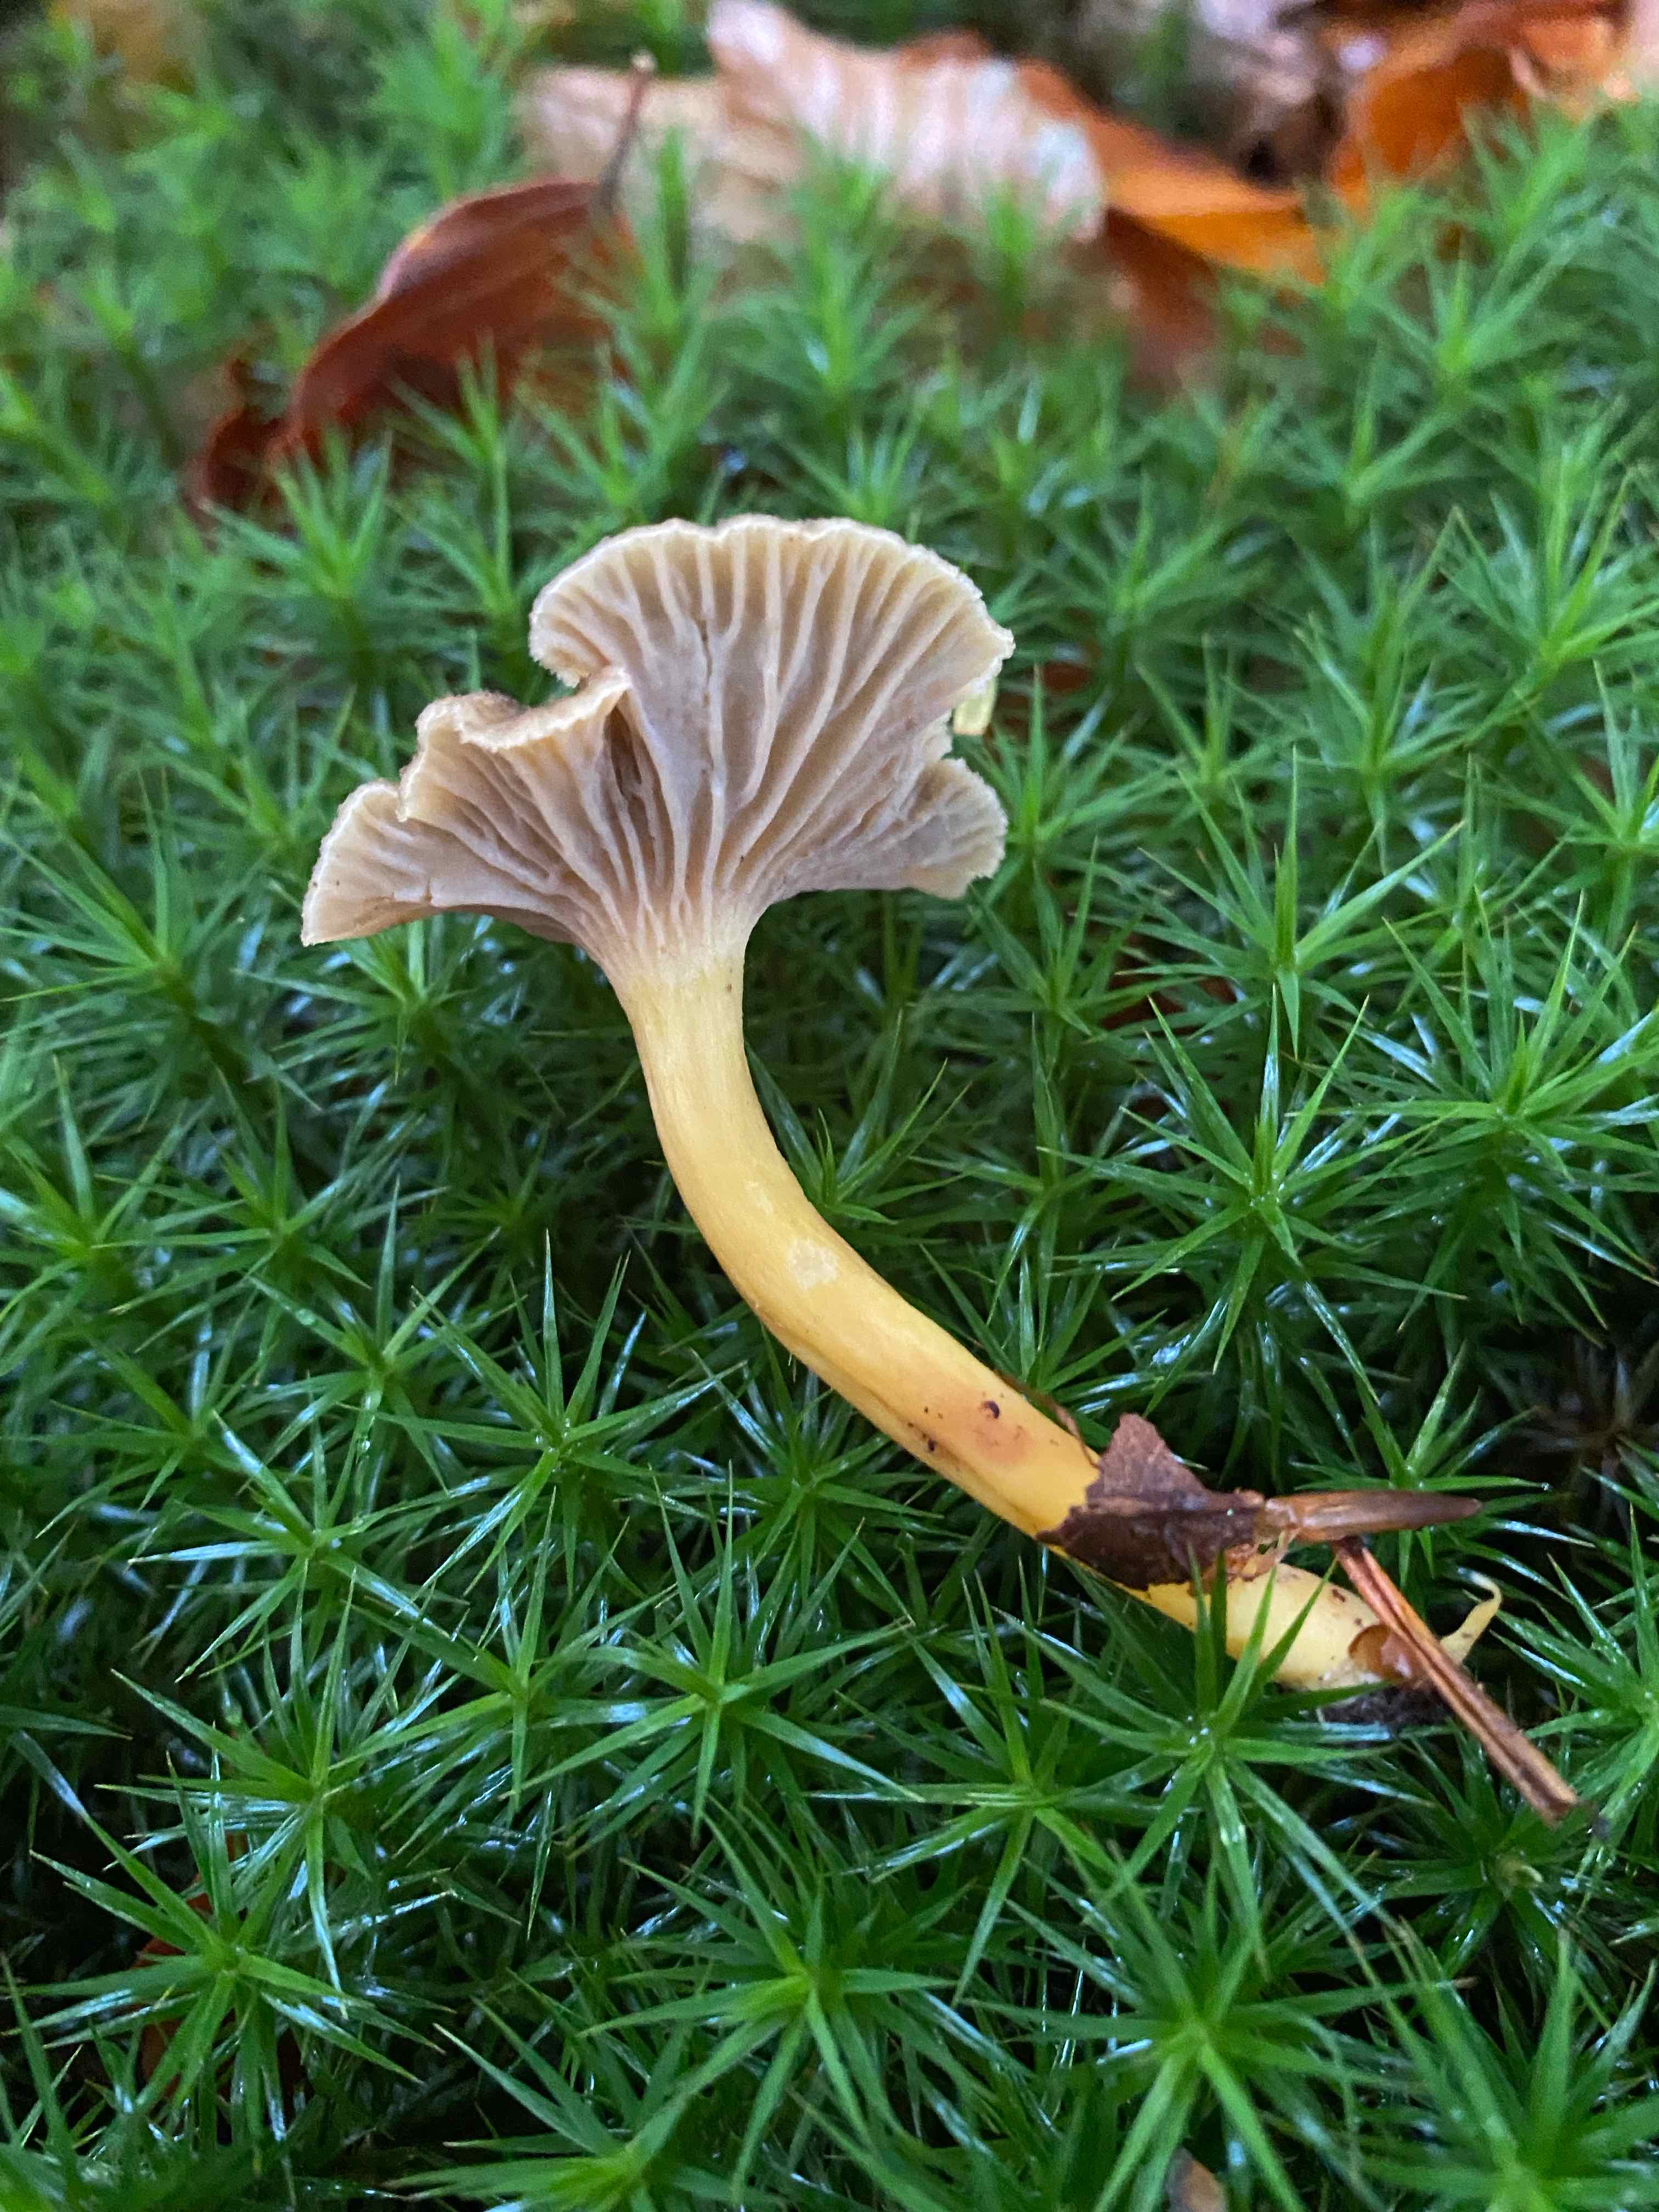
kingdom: Fungi
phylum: Basidiomycota
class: Agaricomycetes
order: Cantharellales
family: Hydnaceae
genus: Craterellus
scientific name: Craterellus tubaeformis
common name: tragt-kantarel
